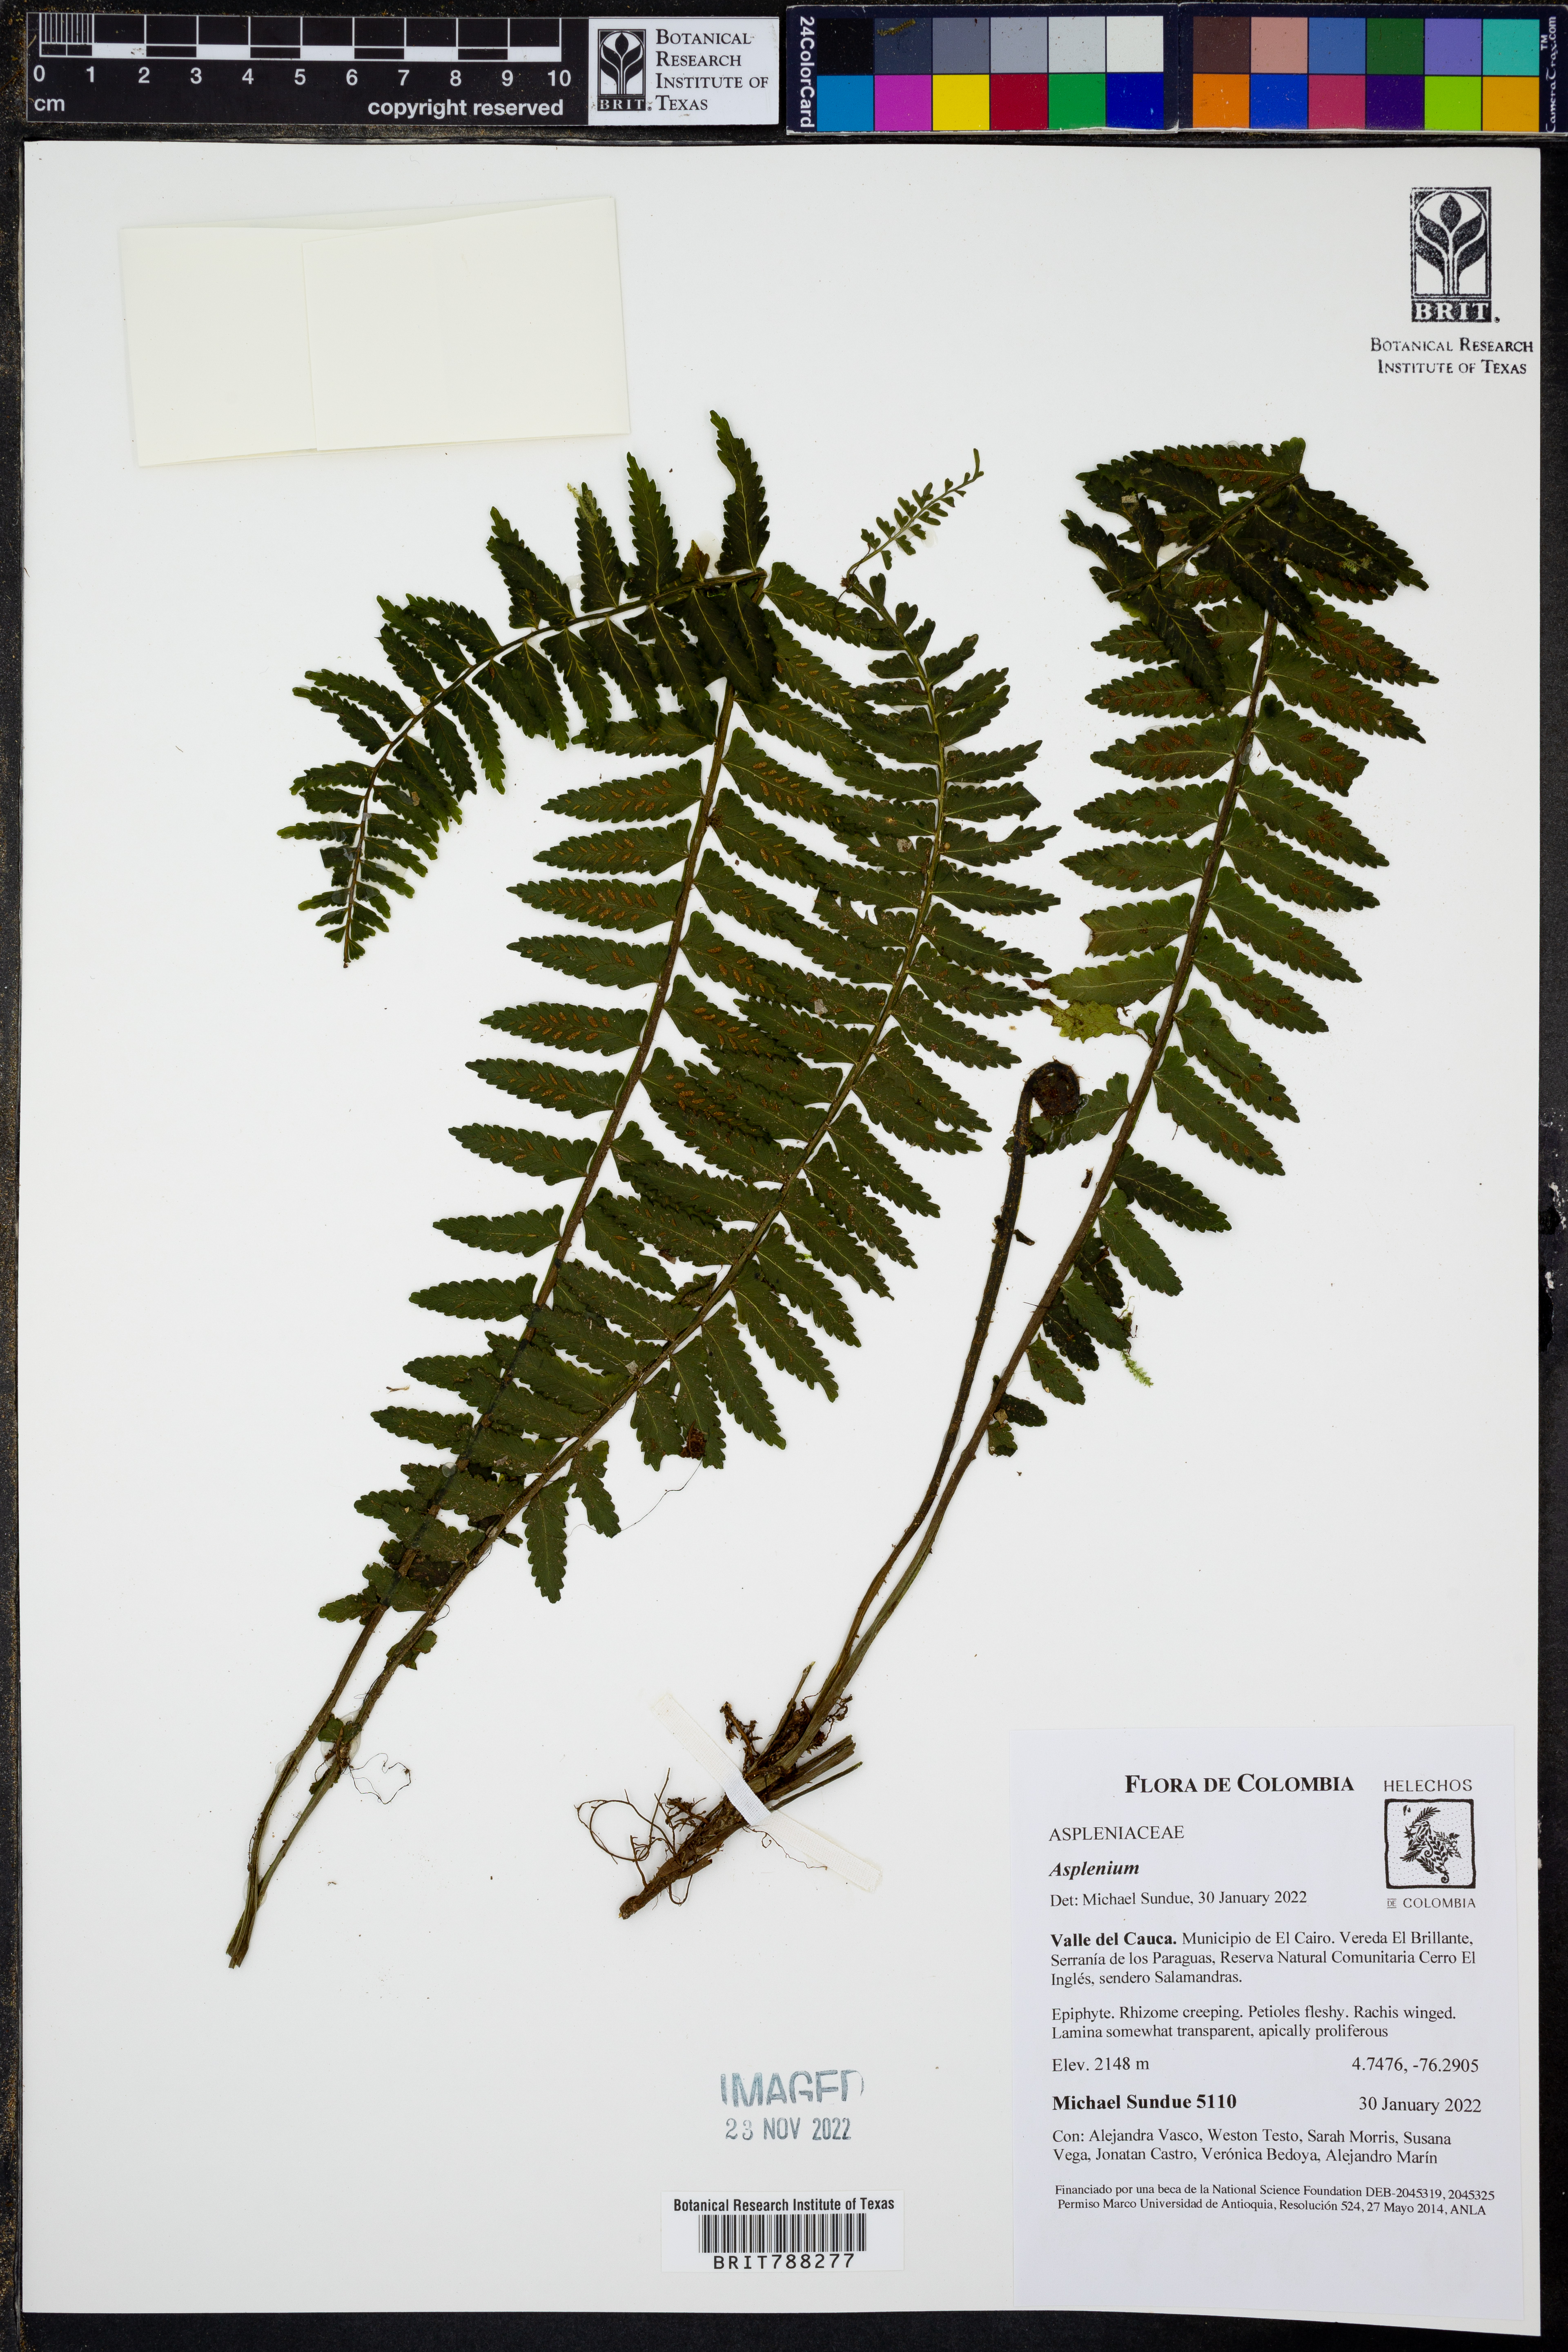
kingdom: Plantae
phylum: Tracheophyta
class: Polypodiopsida
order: Polypodiales
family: Aspleniaceae
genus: Asplenium
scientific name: Asplenium rosenstockianum
